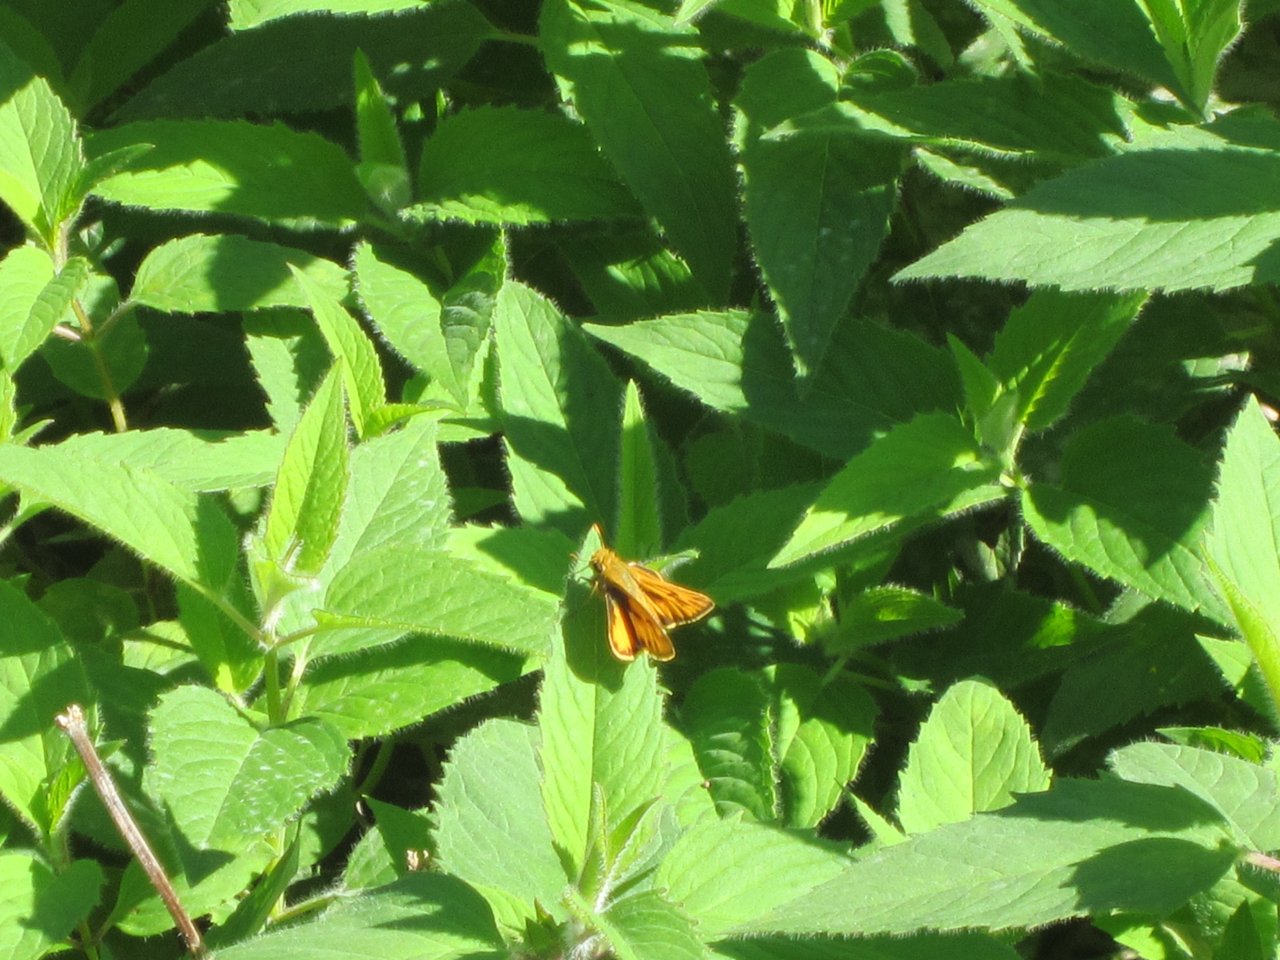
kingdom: Animalia
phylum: Arthropoda
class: Insecta
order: Lepidoptera
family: Hesperiidae
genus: Hylephila
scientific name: Hylephila phyleus
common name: Fiery Skipper
